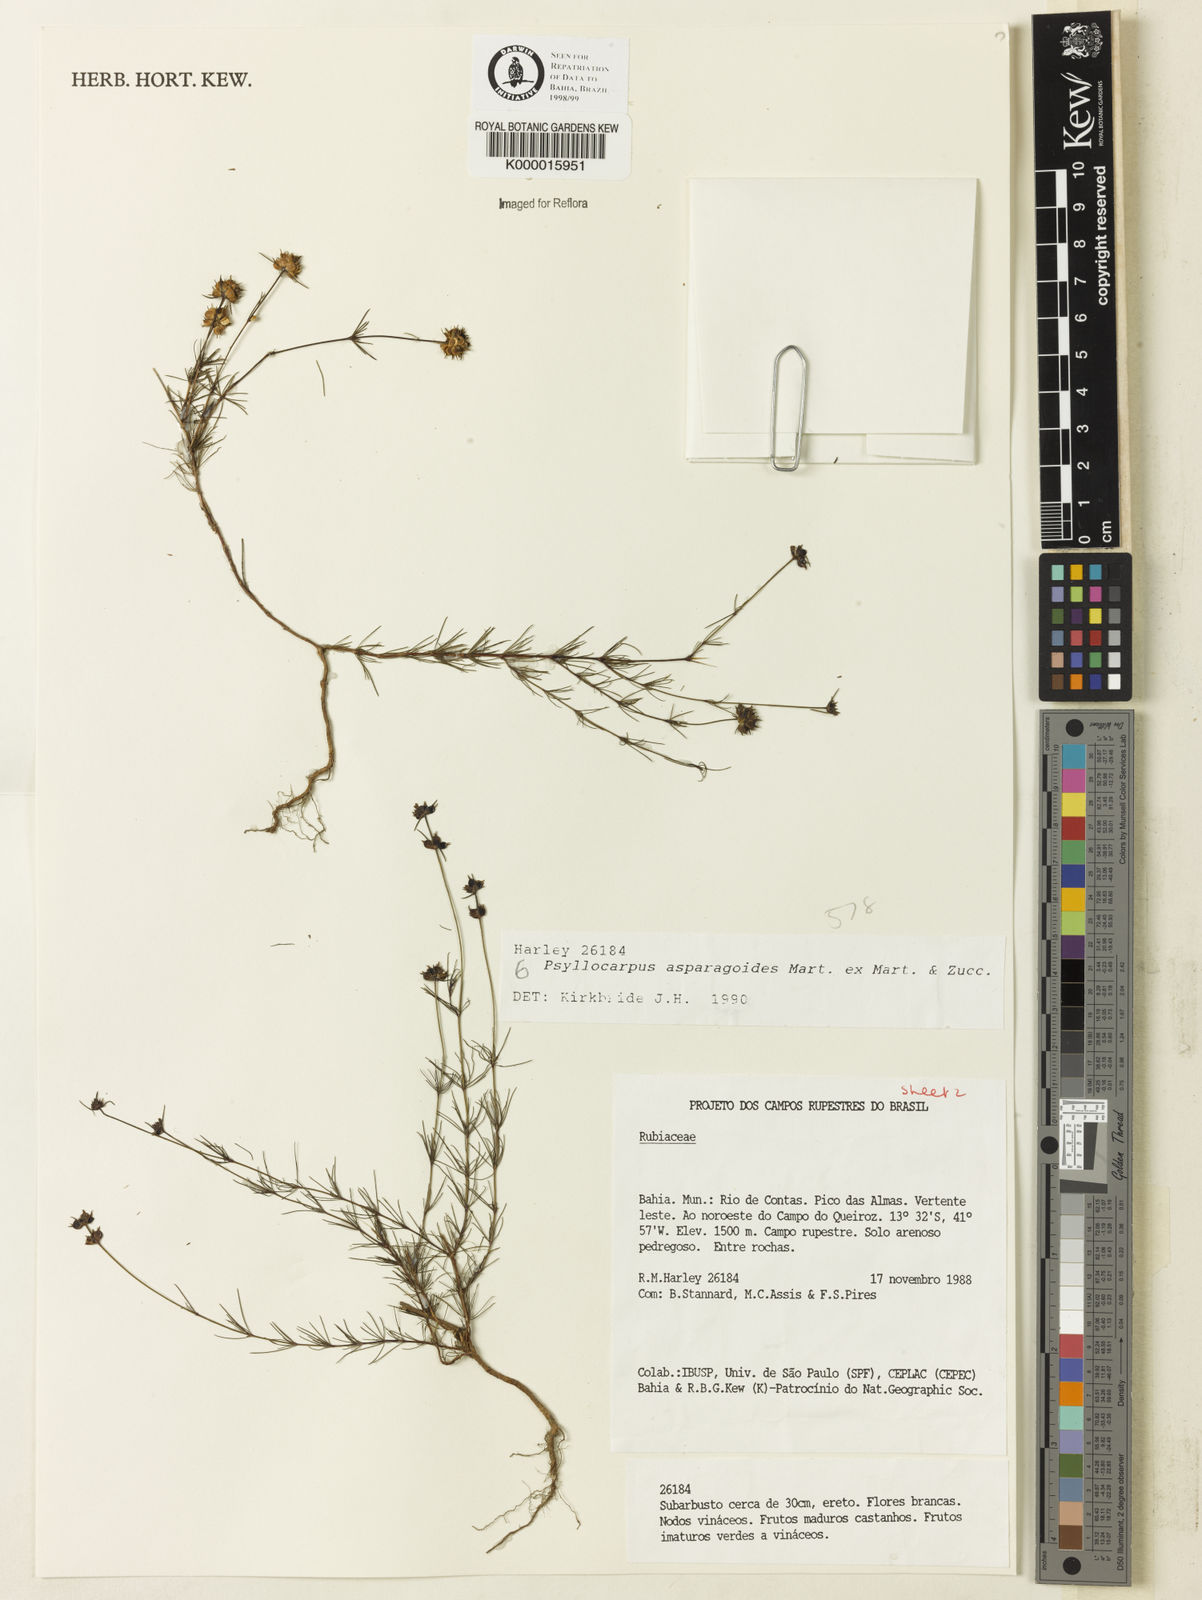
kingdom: Plantae
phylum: Tracheophyta
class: Magnoliopsida
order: Gentianales
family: Rubiaceae
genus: Psyllocarpus
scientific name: Psyllocarpus asparagoides
